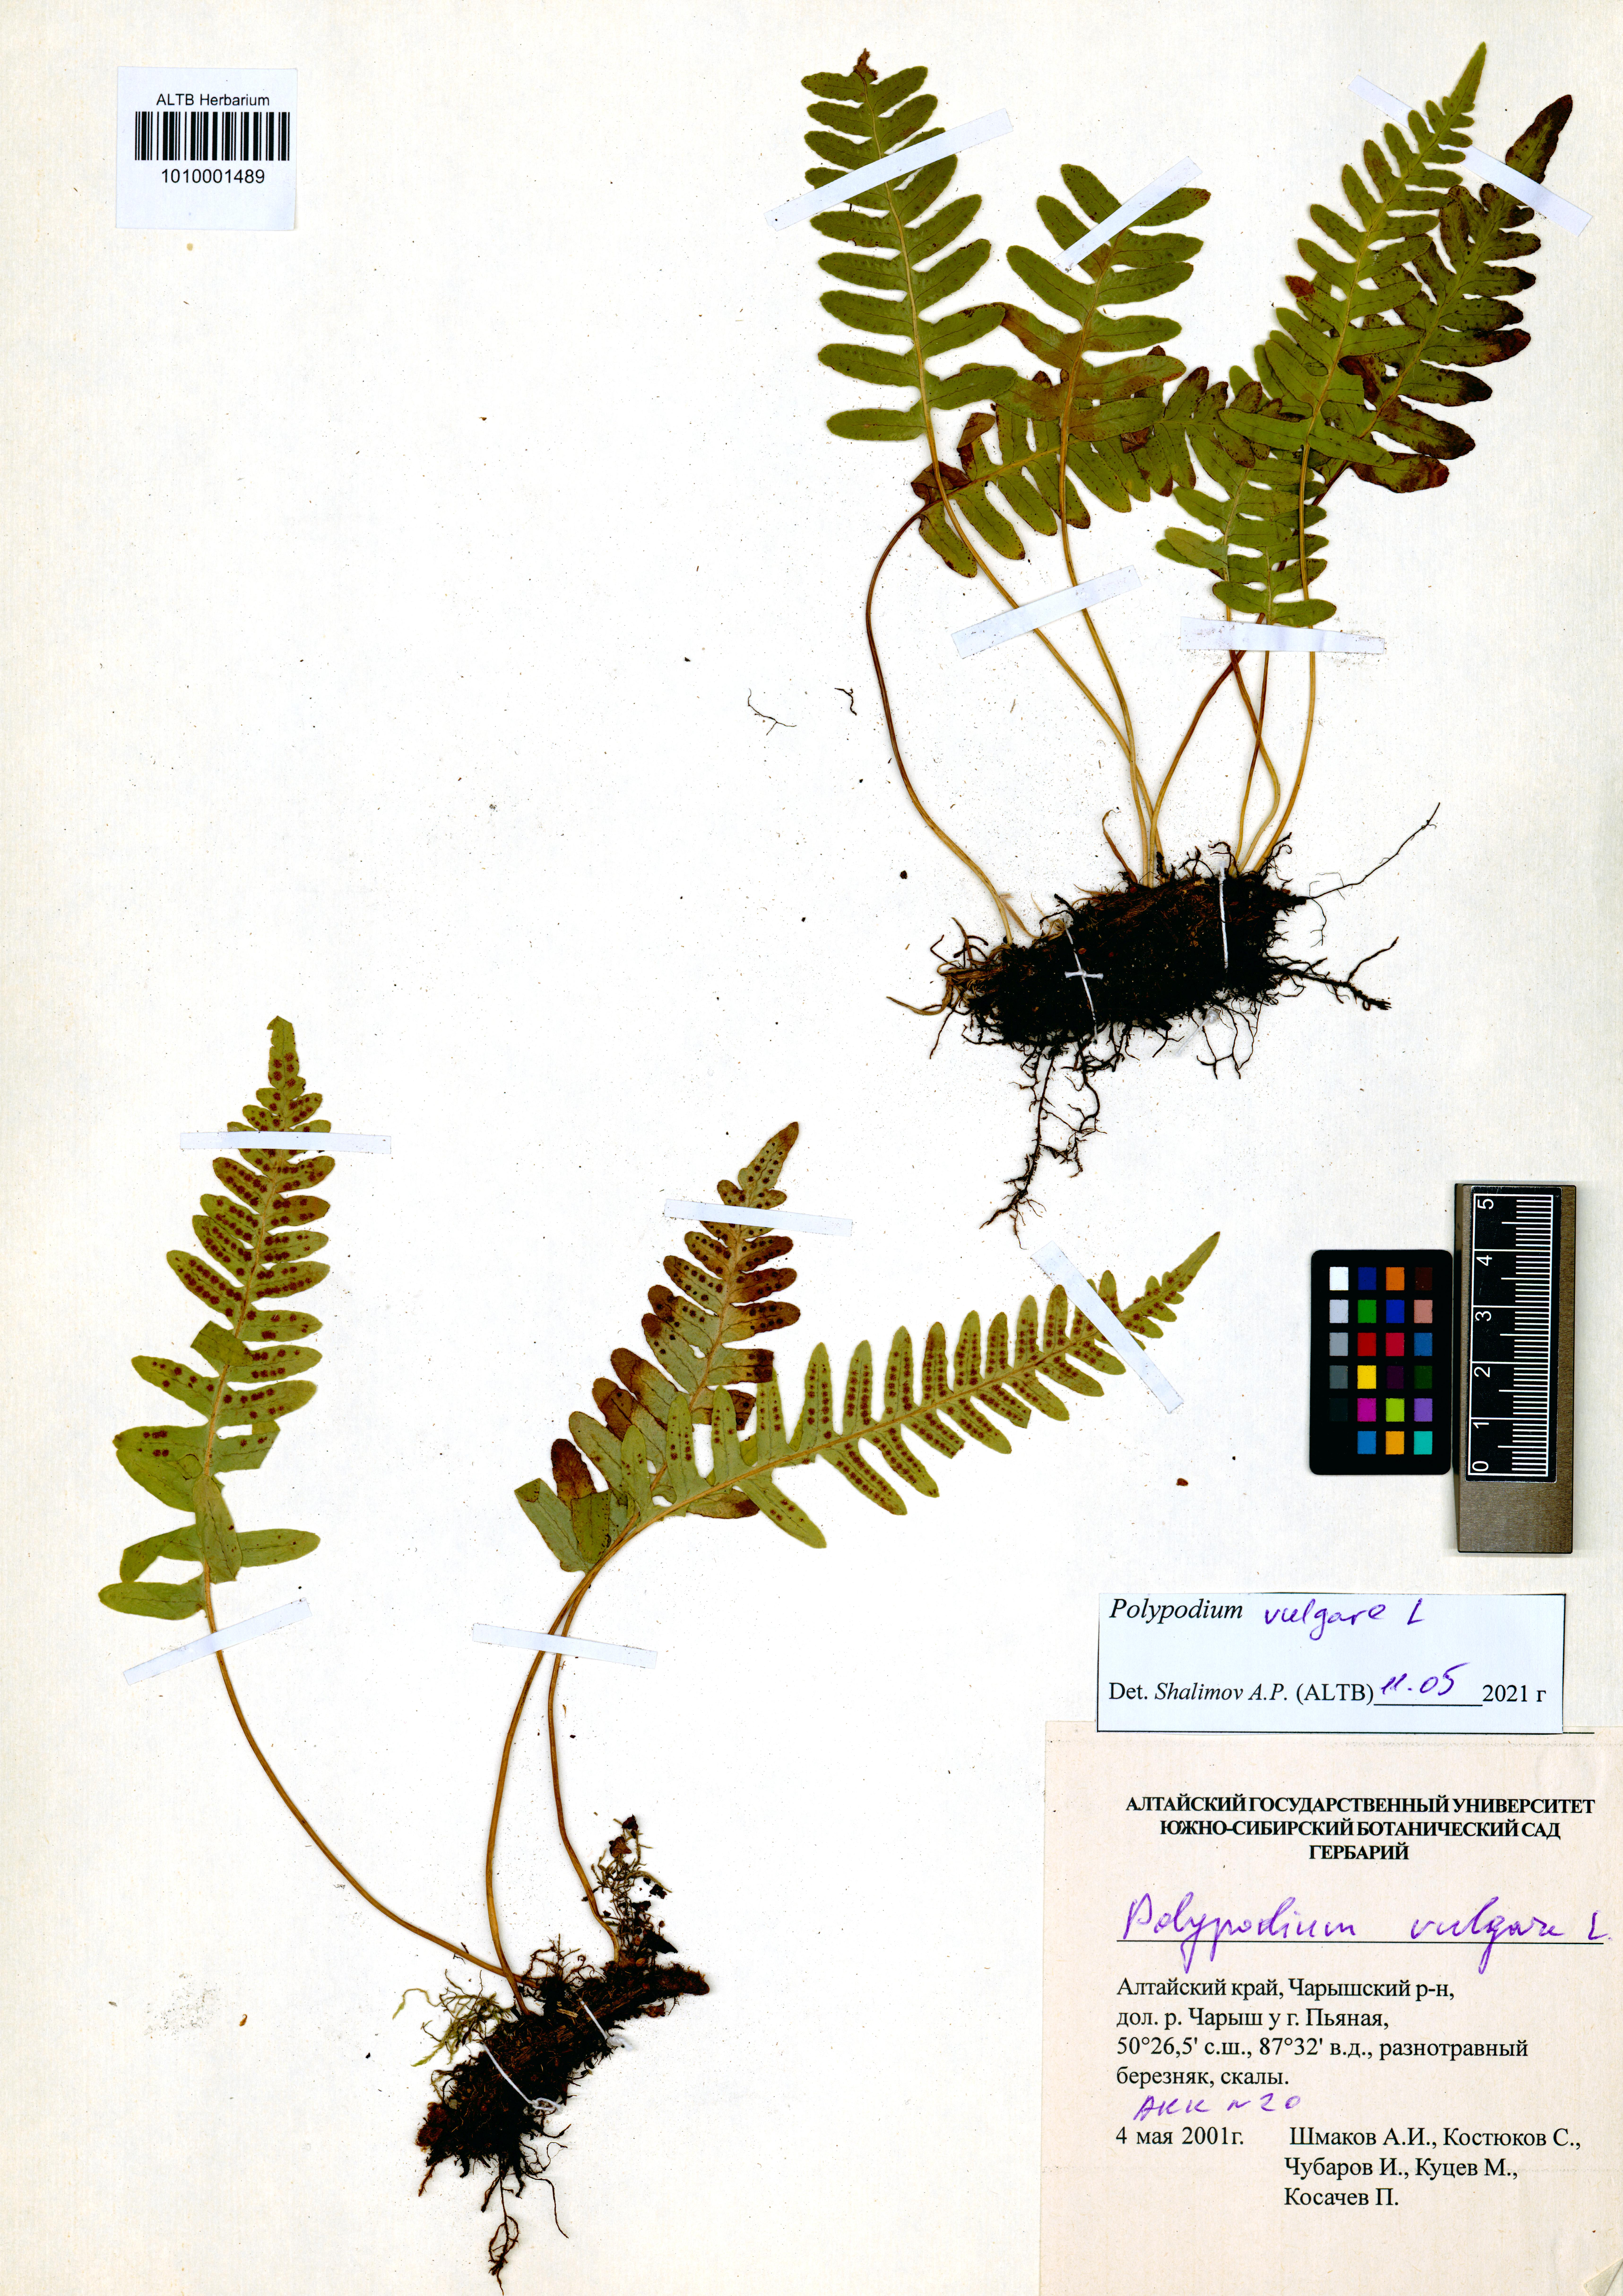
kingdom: Plantae
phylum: Tracheophyta
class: Polypodiopsida
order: Polypodiales
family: Polypodiaceae
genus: Polypodium
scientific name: Polypodium vulgare
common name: Common polypody
